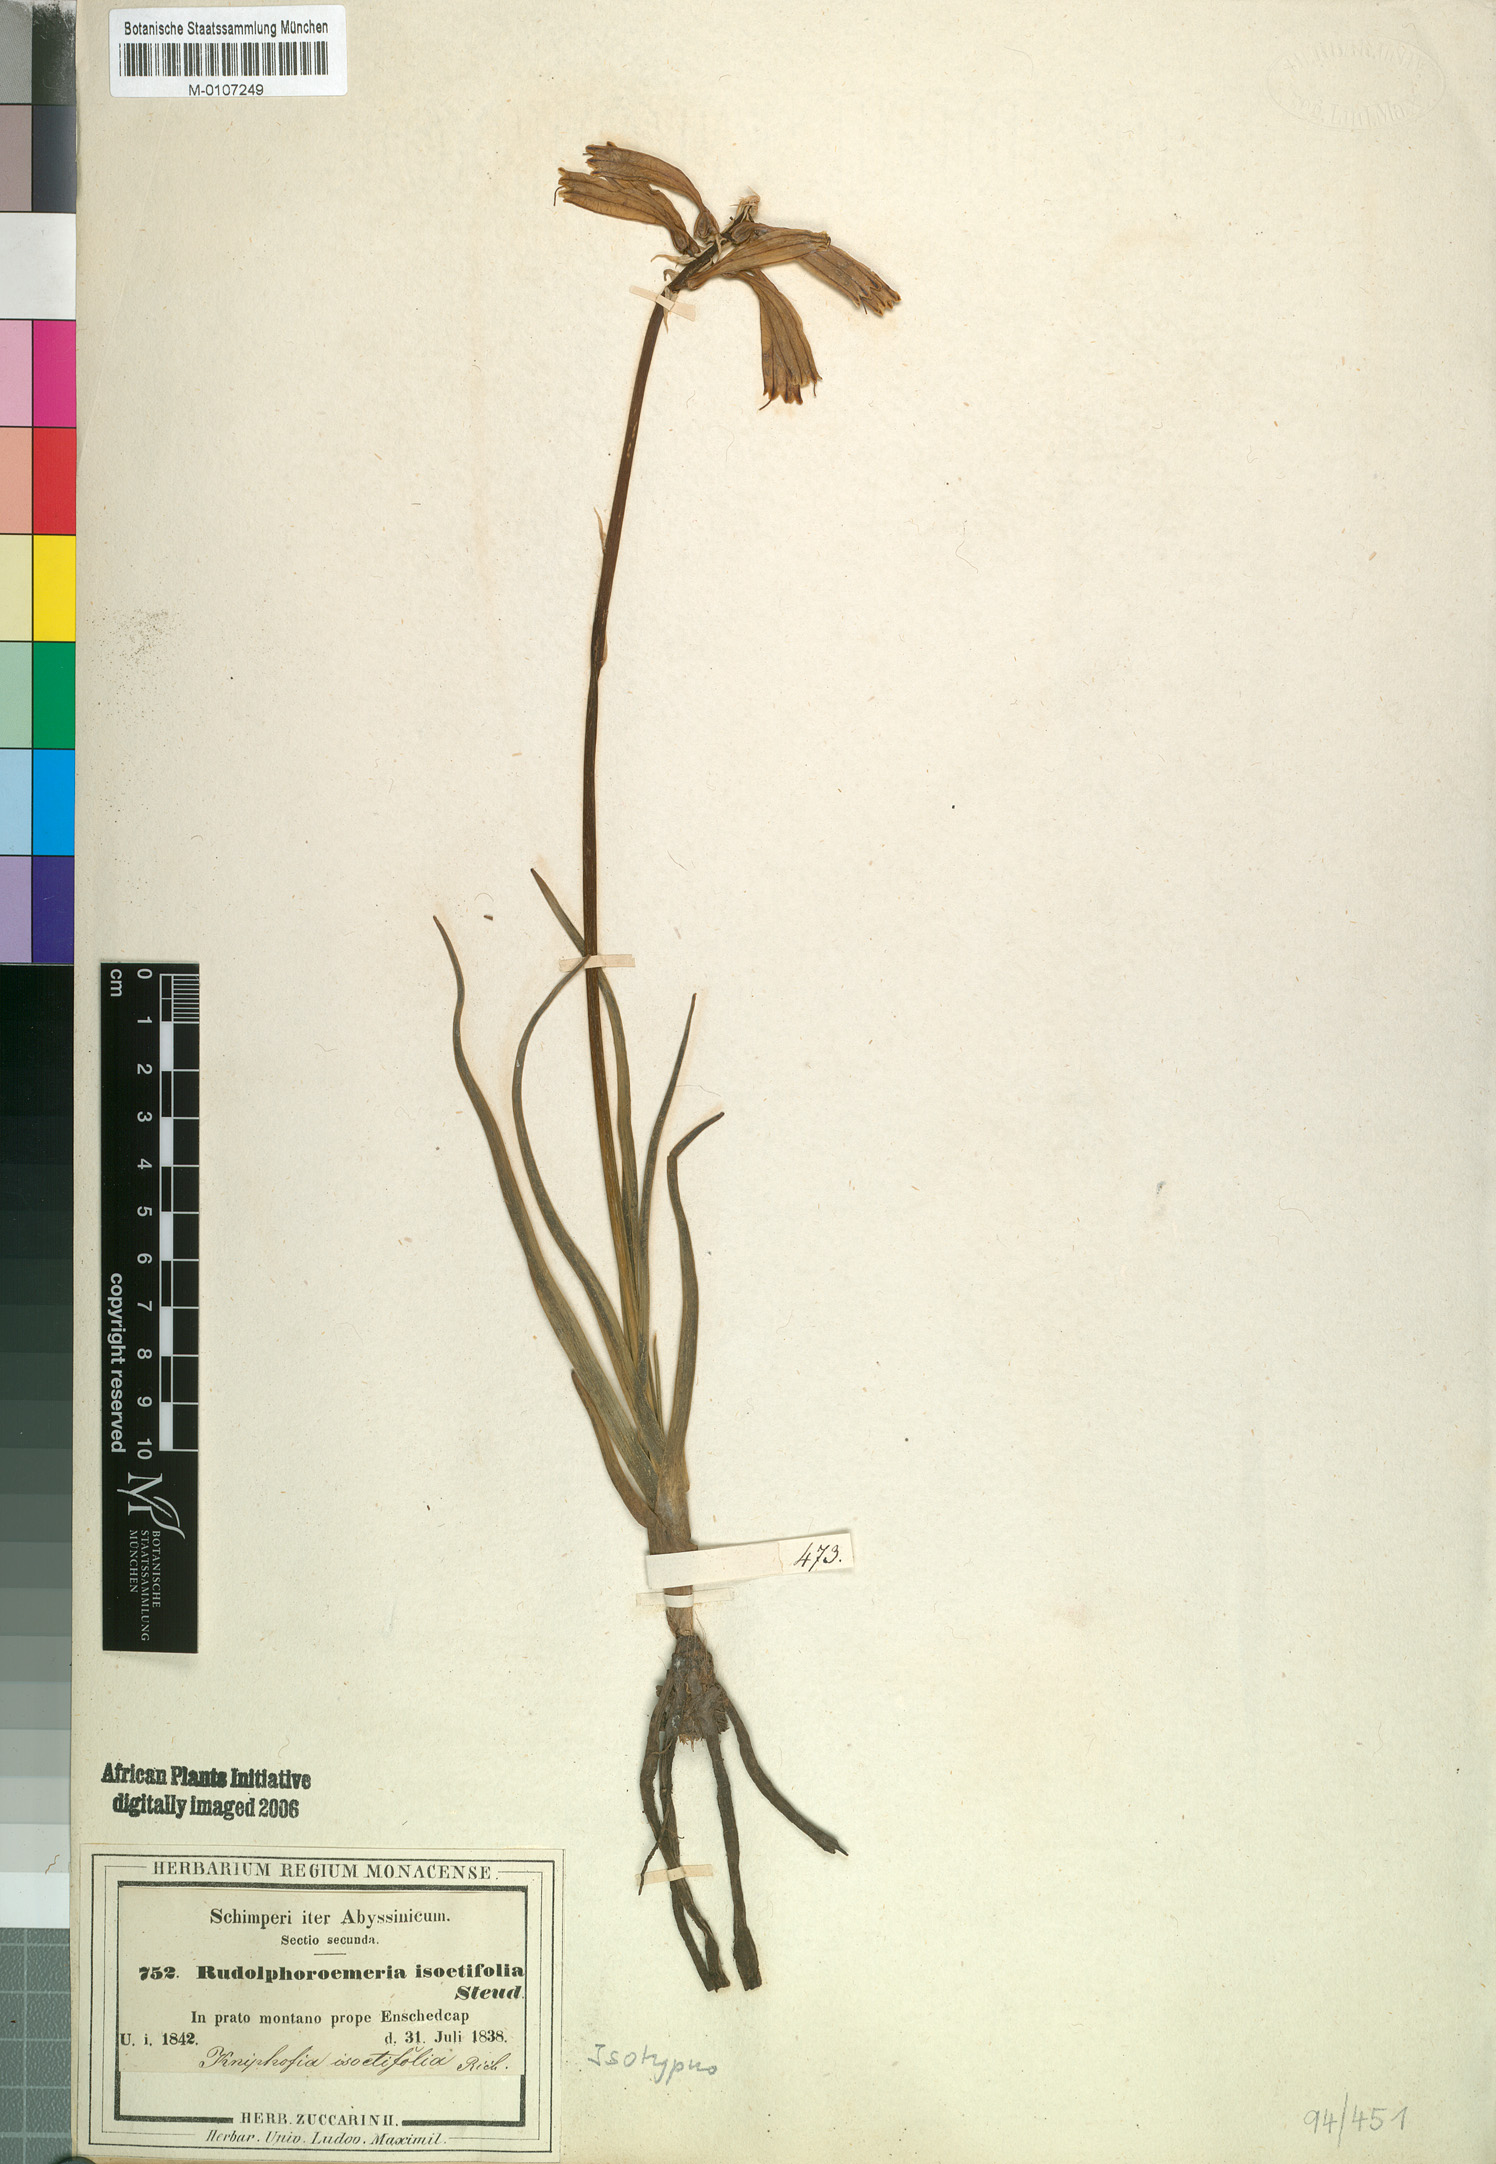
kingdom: Plantae
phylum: Tracheophyta
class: Liliopsida
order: Asparagales
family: Asphodelaceae
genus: Kniphofia
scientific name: Kniphofia isoetifolia
